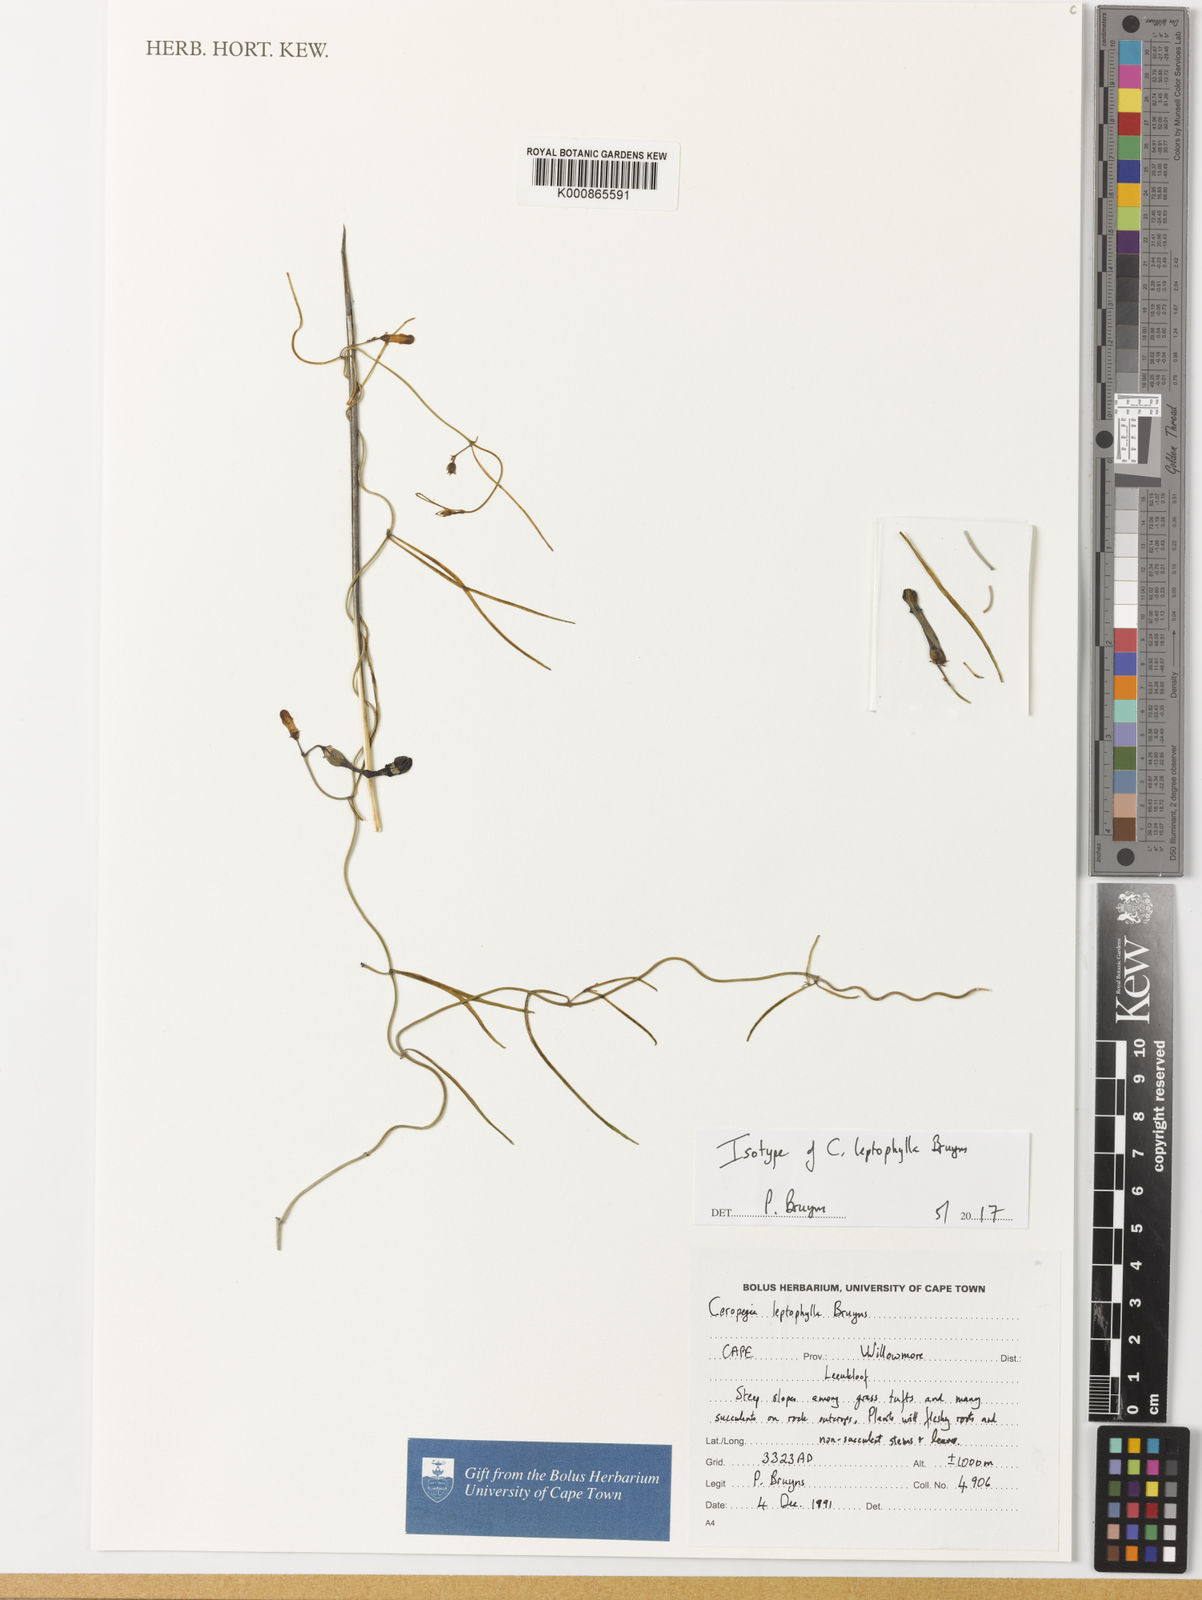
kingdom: Plantae
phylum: Tracheophyta
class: Magnoliopsida
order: Gentianales
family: Apocynaceae
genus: Ceropegia
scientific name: Ceropegia leptophylla
